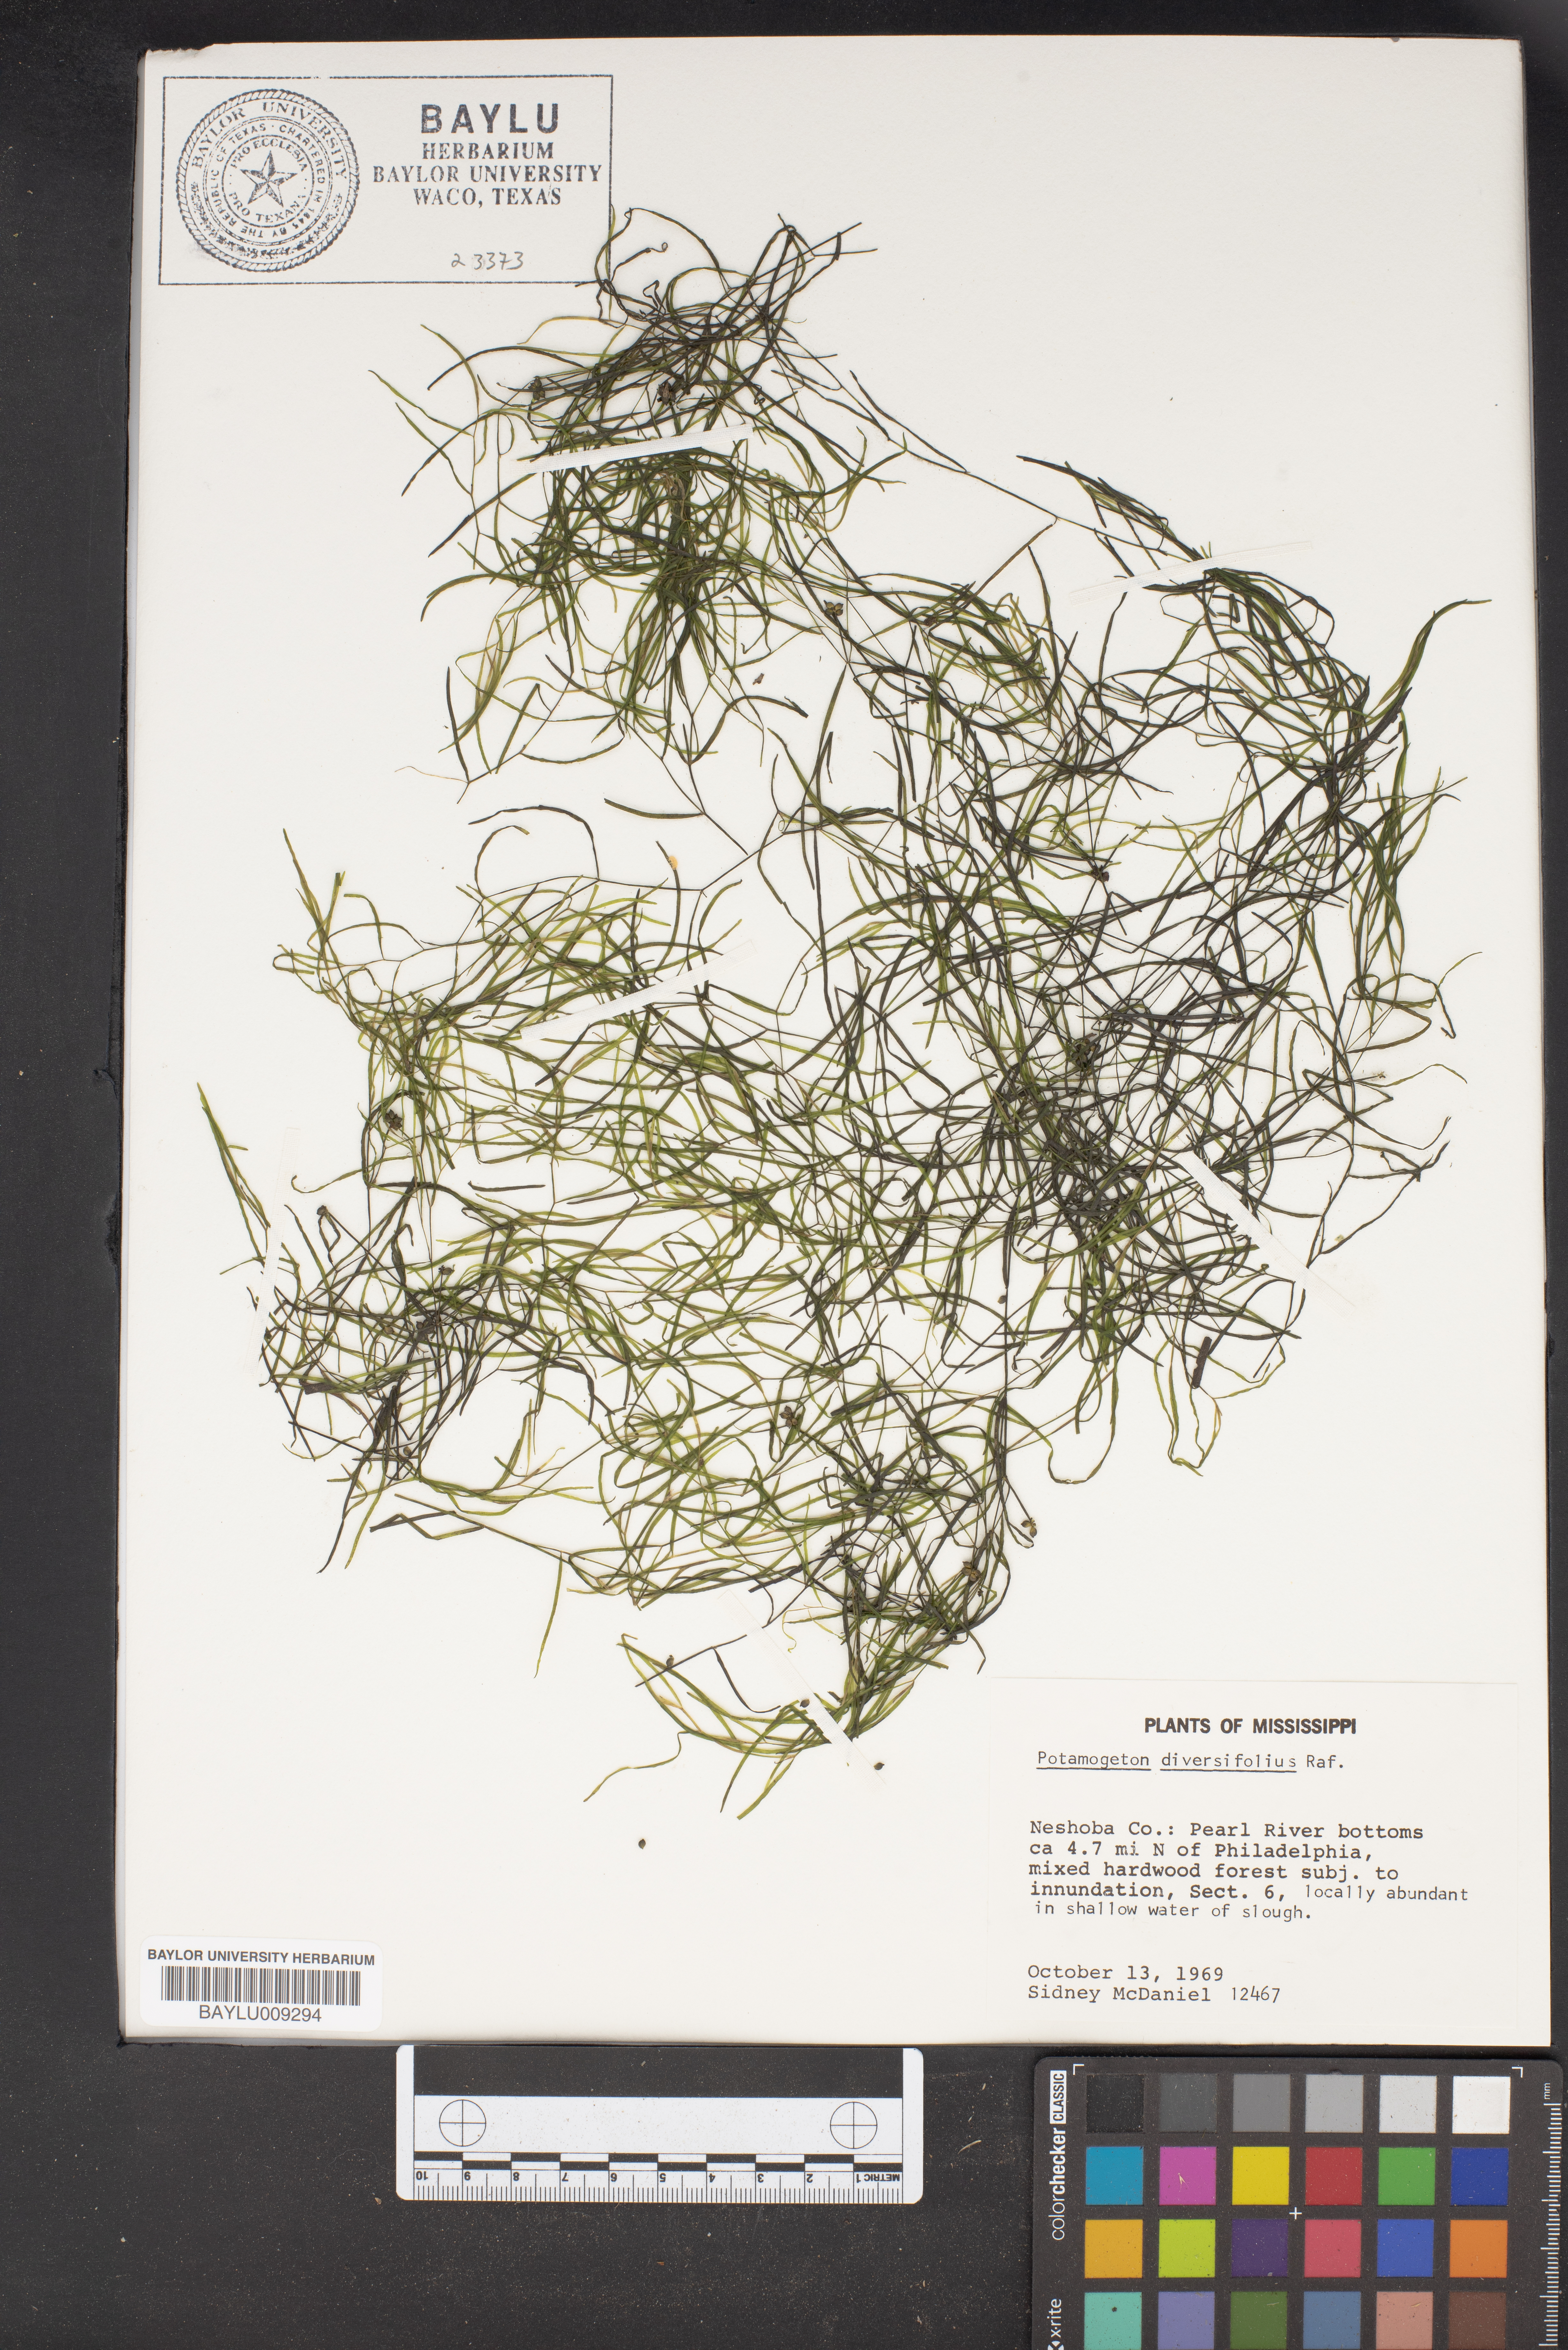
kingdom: Plantae
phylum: Tracheophyta
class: Liliopsida
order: Alismatales
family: Potamogetonaceae
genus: Potamogeton
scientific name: Potamogeton diversifolius
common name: Water-thread pondweed
